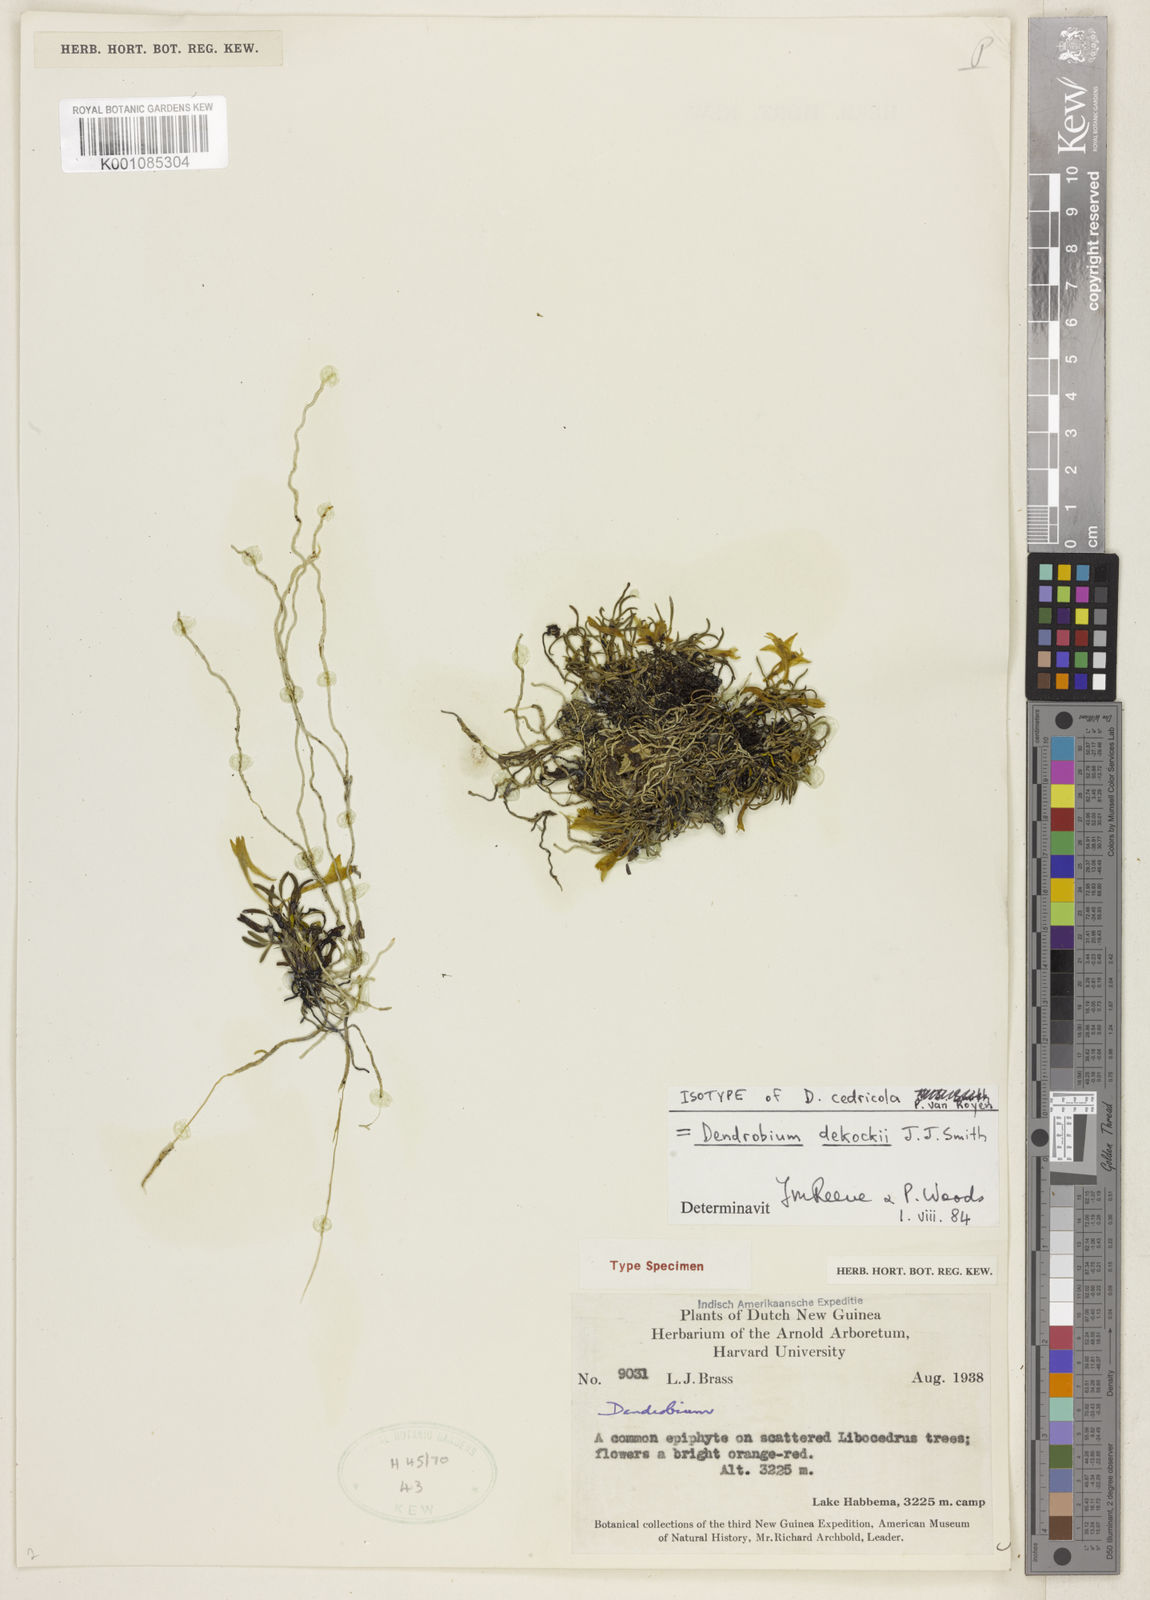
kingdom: Plantae
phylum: Tracheophyta
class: Liliopsida
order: Asparagales
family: Orchidaceae
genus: Dendrobium
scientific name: Dendrobium dekockii
